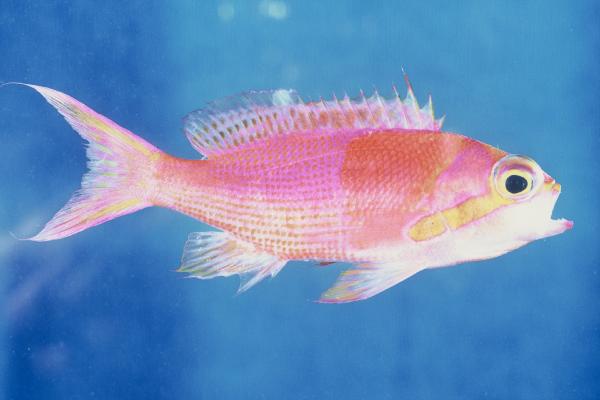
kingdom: Animalia
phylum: Chordata
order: Perciformes
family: Serranidae
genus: Pseudanthias
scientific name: Pseudanthias gibbosus
